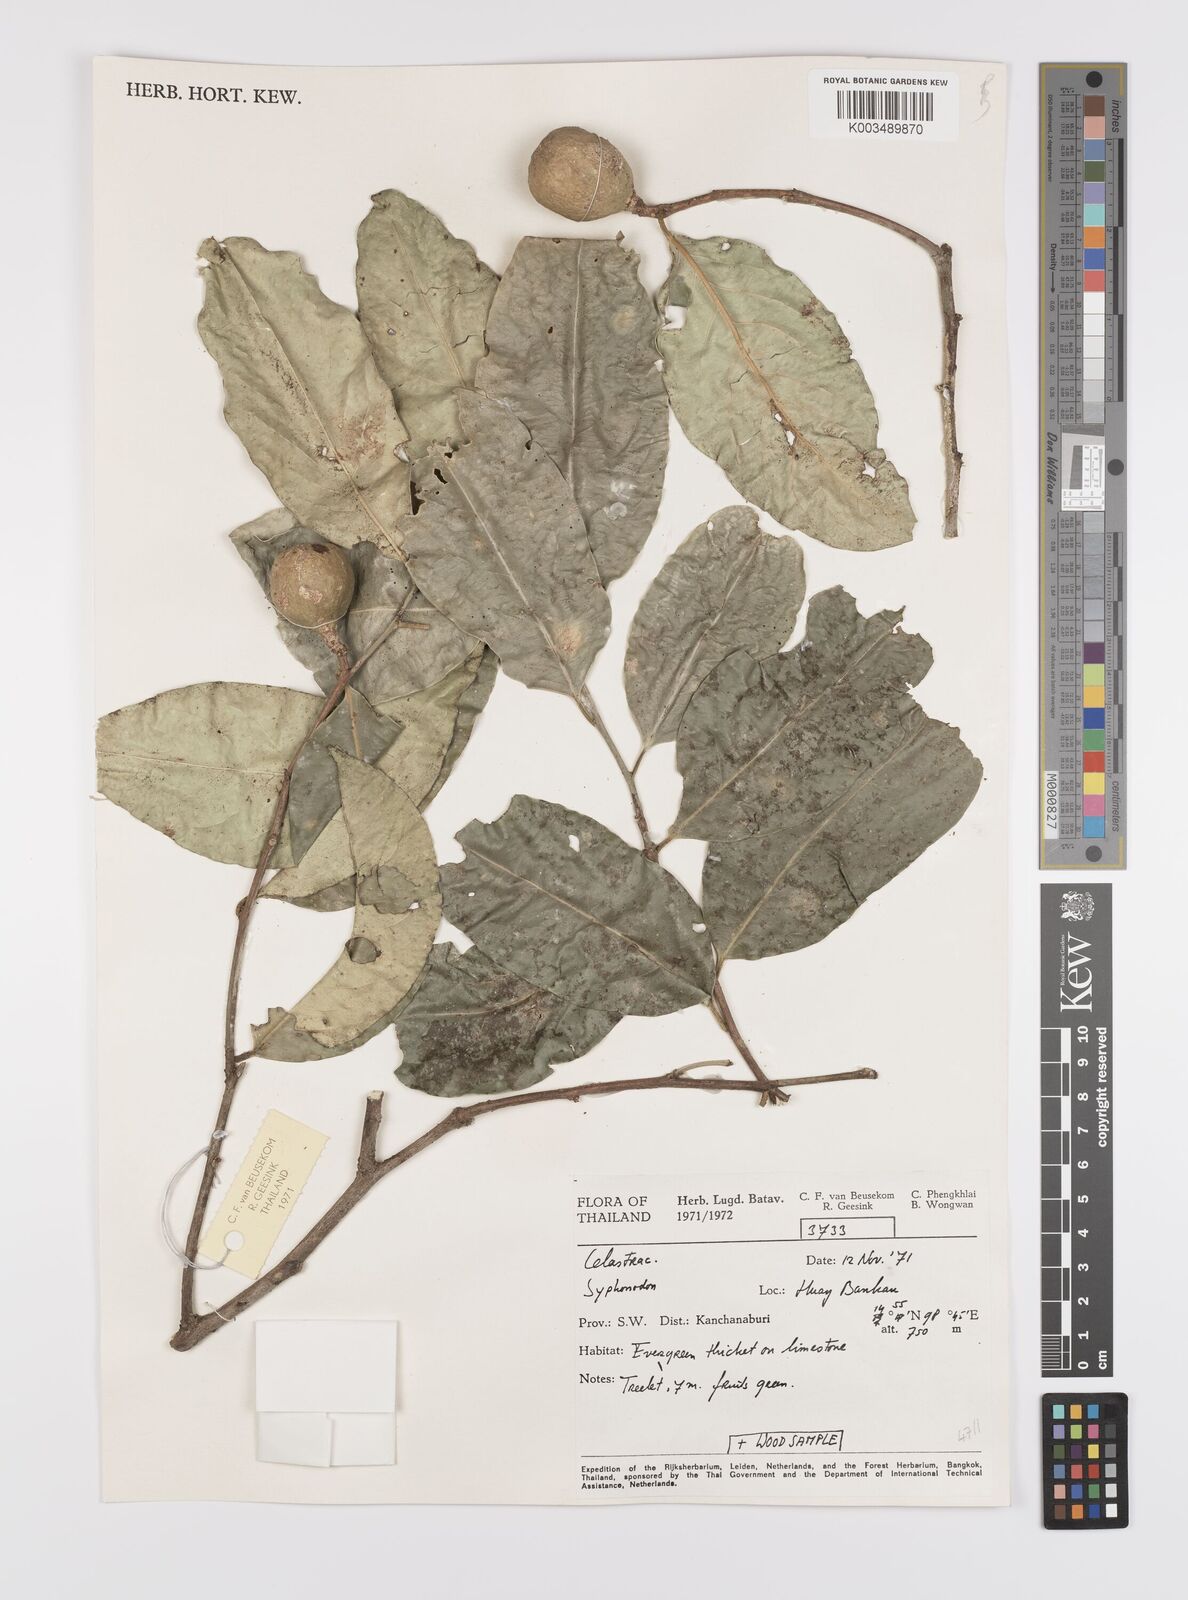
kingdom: Plantae
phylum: Tracheophyta
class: Magnoliopsida
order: Celastrales
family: Celastraceae
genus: Siphonodon
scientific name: Siphonodon
